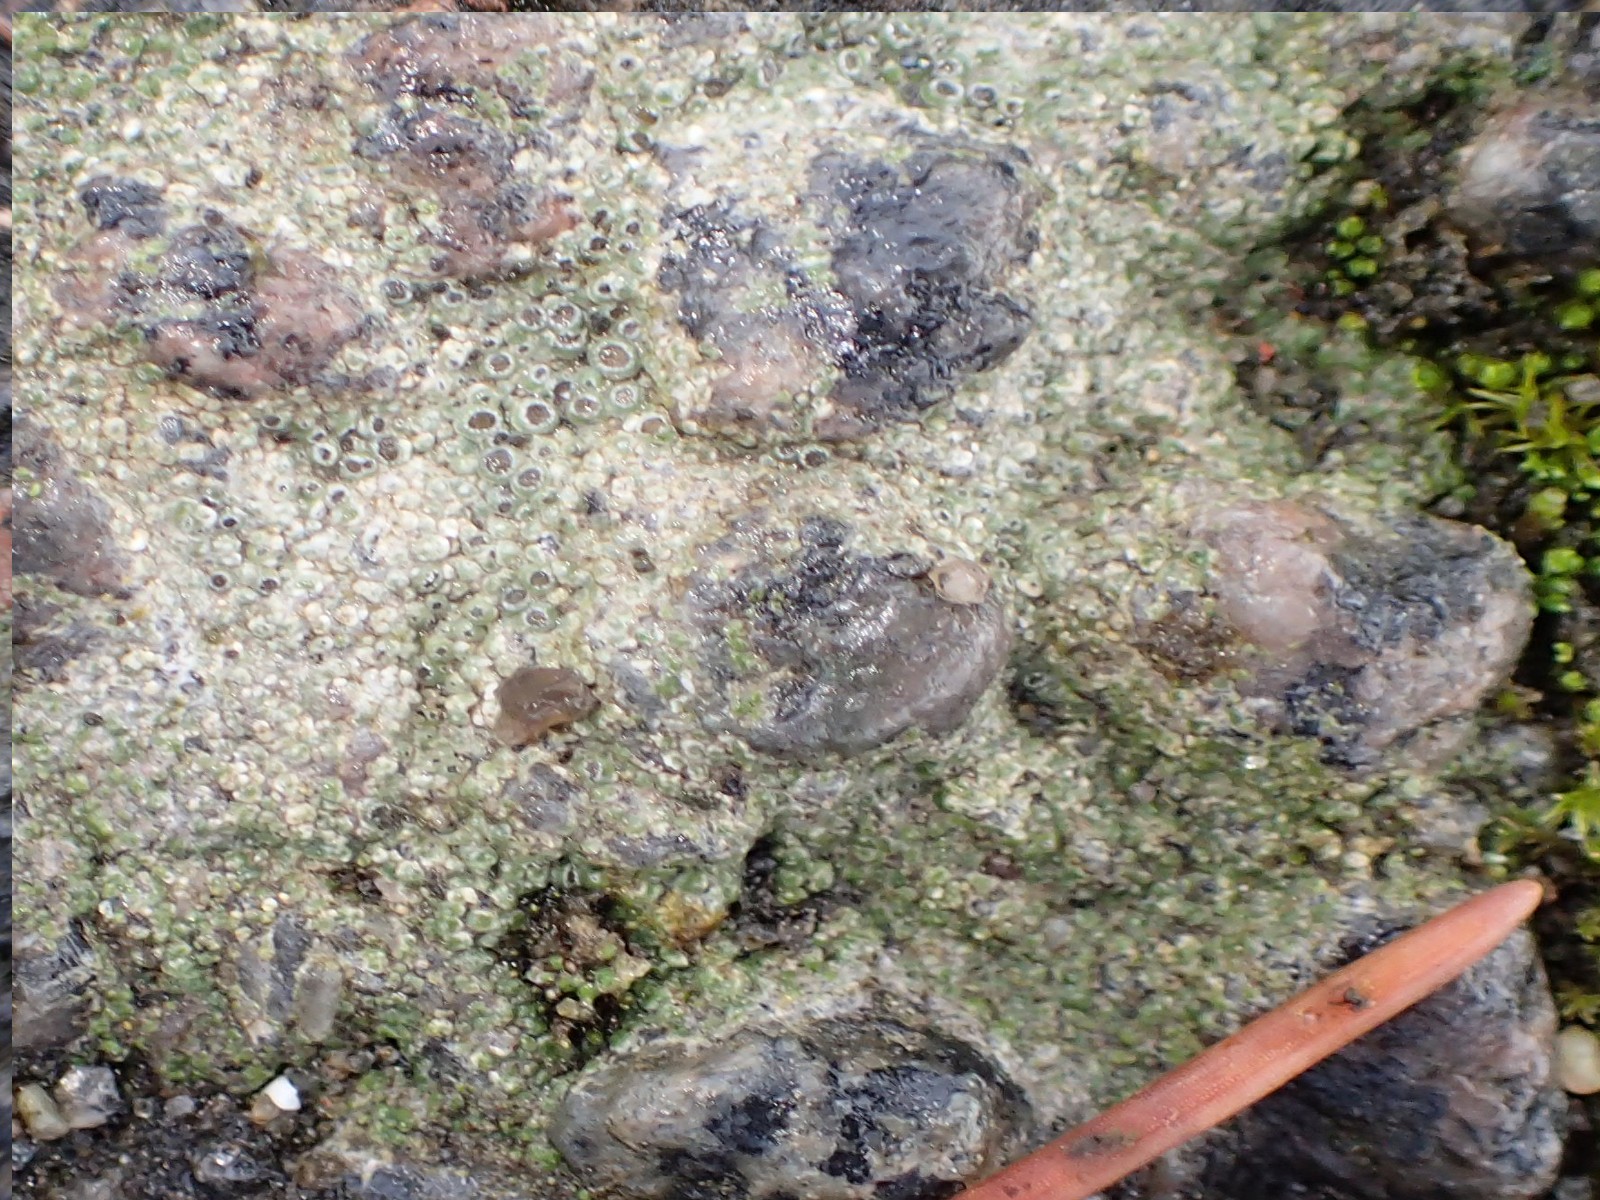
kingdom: Fungi
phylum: Ascomycota
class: Lecanoromycetes
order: Pertusariales
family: Megasporaceae
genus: Circinaria
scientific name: Circinaria contorta
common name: indviklet hulskivelav
